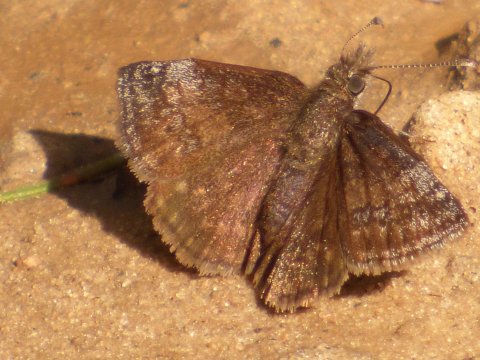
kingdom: Animalia
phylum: Arthropoda
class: Insecta
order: Lepidoptera
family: Hesperiidae
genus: Erynnis
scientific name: Erynnis icelus
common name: Dreamy Duskywing
